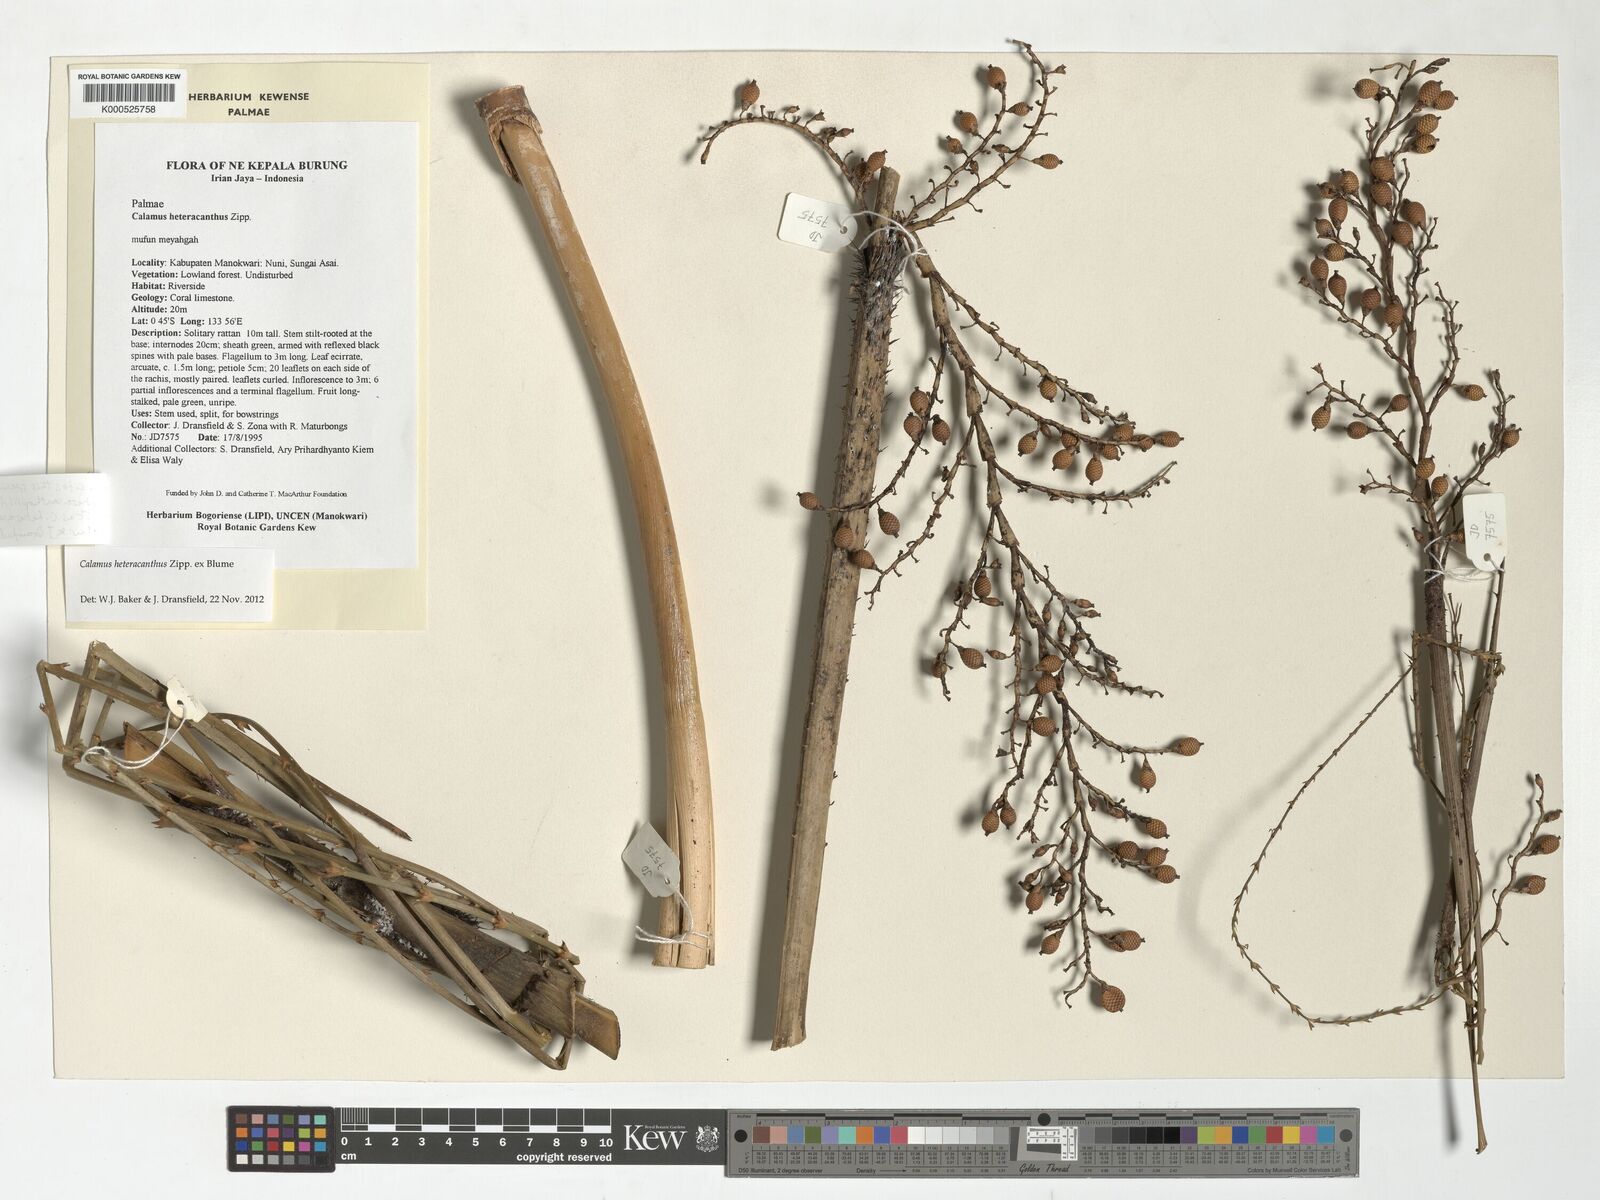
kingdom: Plantae
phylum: Tracheophyta
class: Liliopsida
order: Arecales
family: Arecaceae
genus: Calamus
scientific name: Calamus heteracanthus
